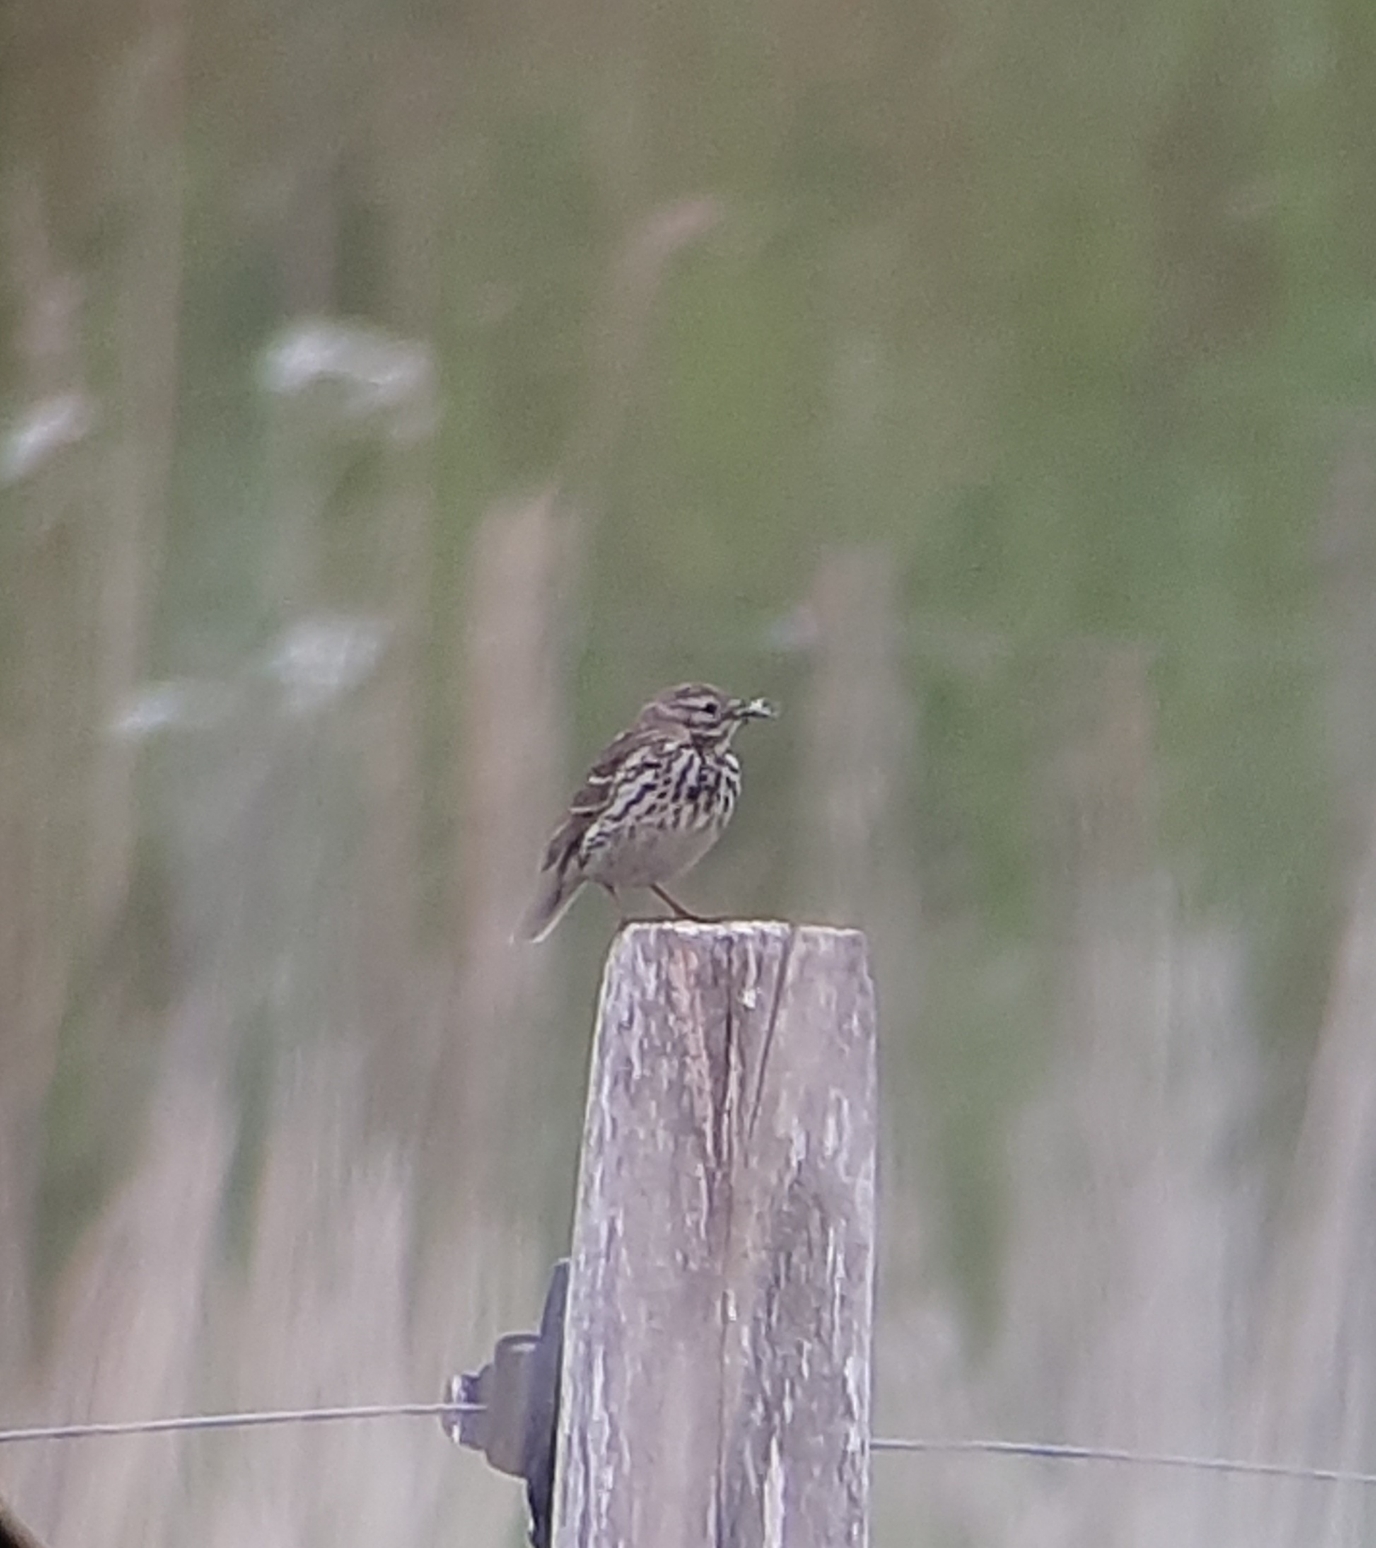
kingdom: Animalia
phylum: Chordata
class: Aves
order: Passeriformes
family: Motacillidae
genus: Anthus
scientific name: Anthus pratensis
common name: Engpiber
